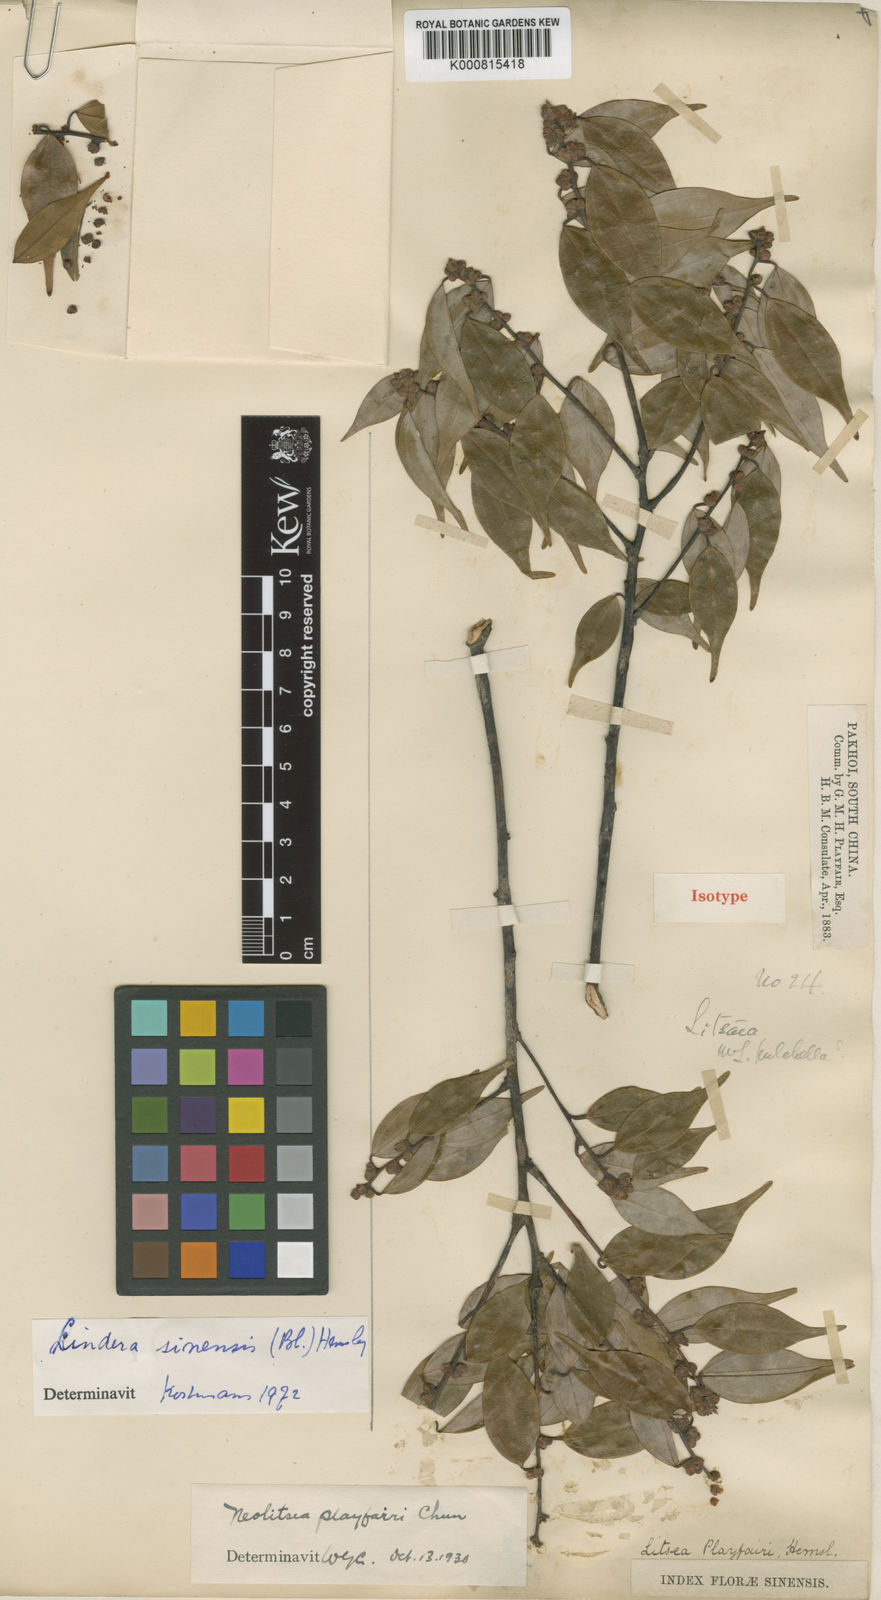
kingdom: Plantae
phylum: Tracheophyta
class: Magnoliopsida
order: Laurales
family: Lauraceae
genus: Lindera
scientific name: Lindera aggregata
